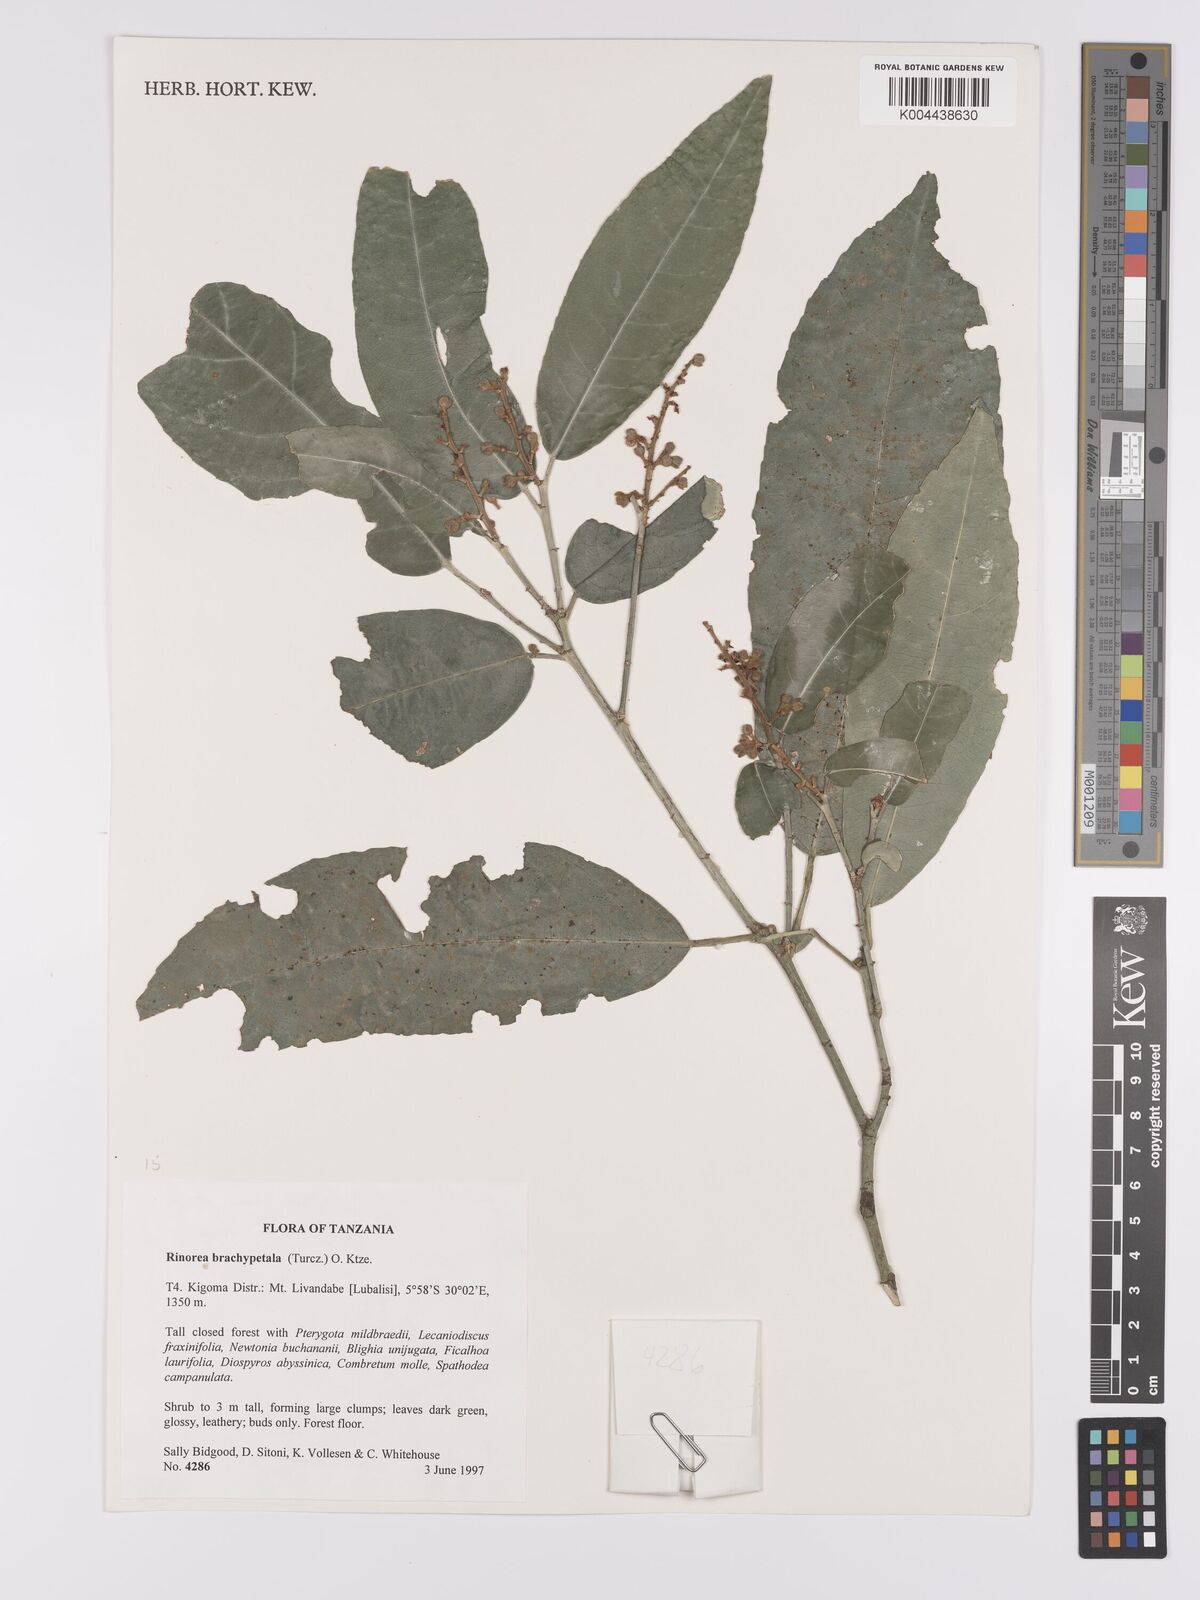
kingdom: Plantae
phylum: Tracheophyta
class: Magnoliopsida
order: Malpighiales
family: Violaceae
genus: Rinorea
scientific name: Rinorea brachypetala
